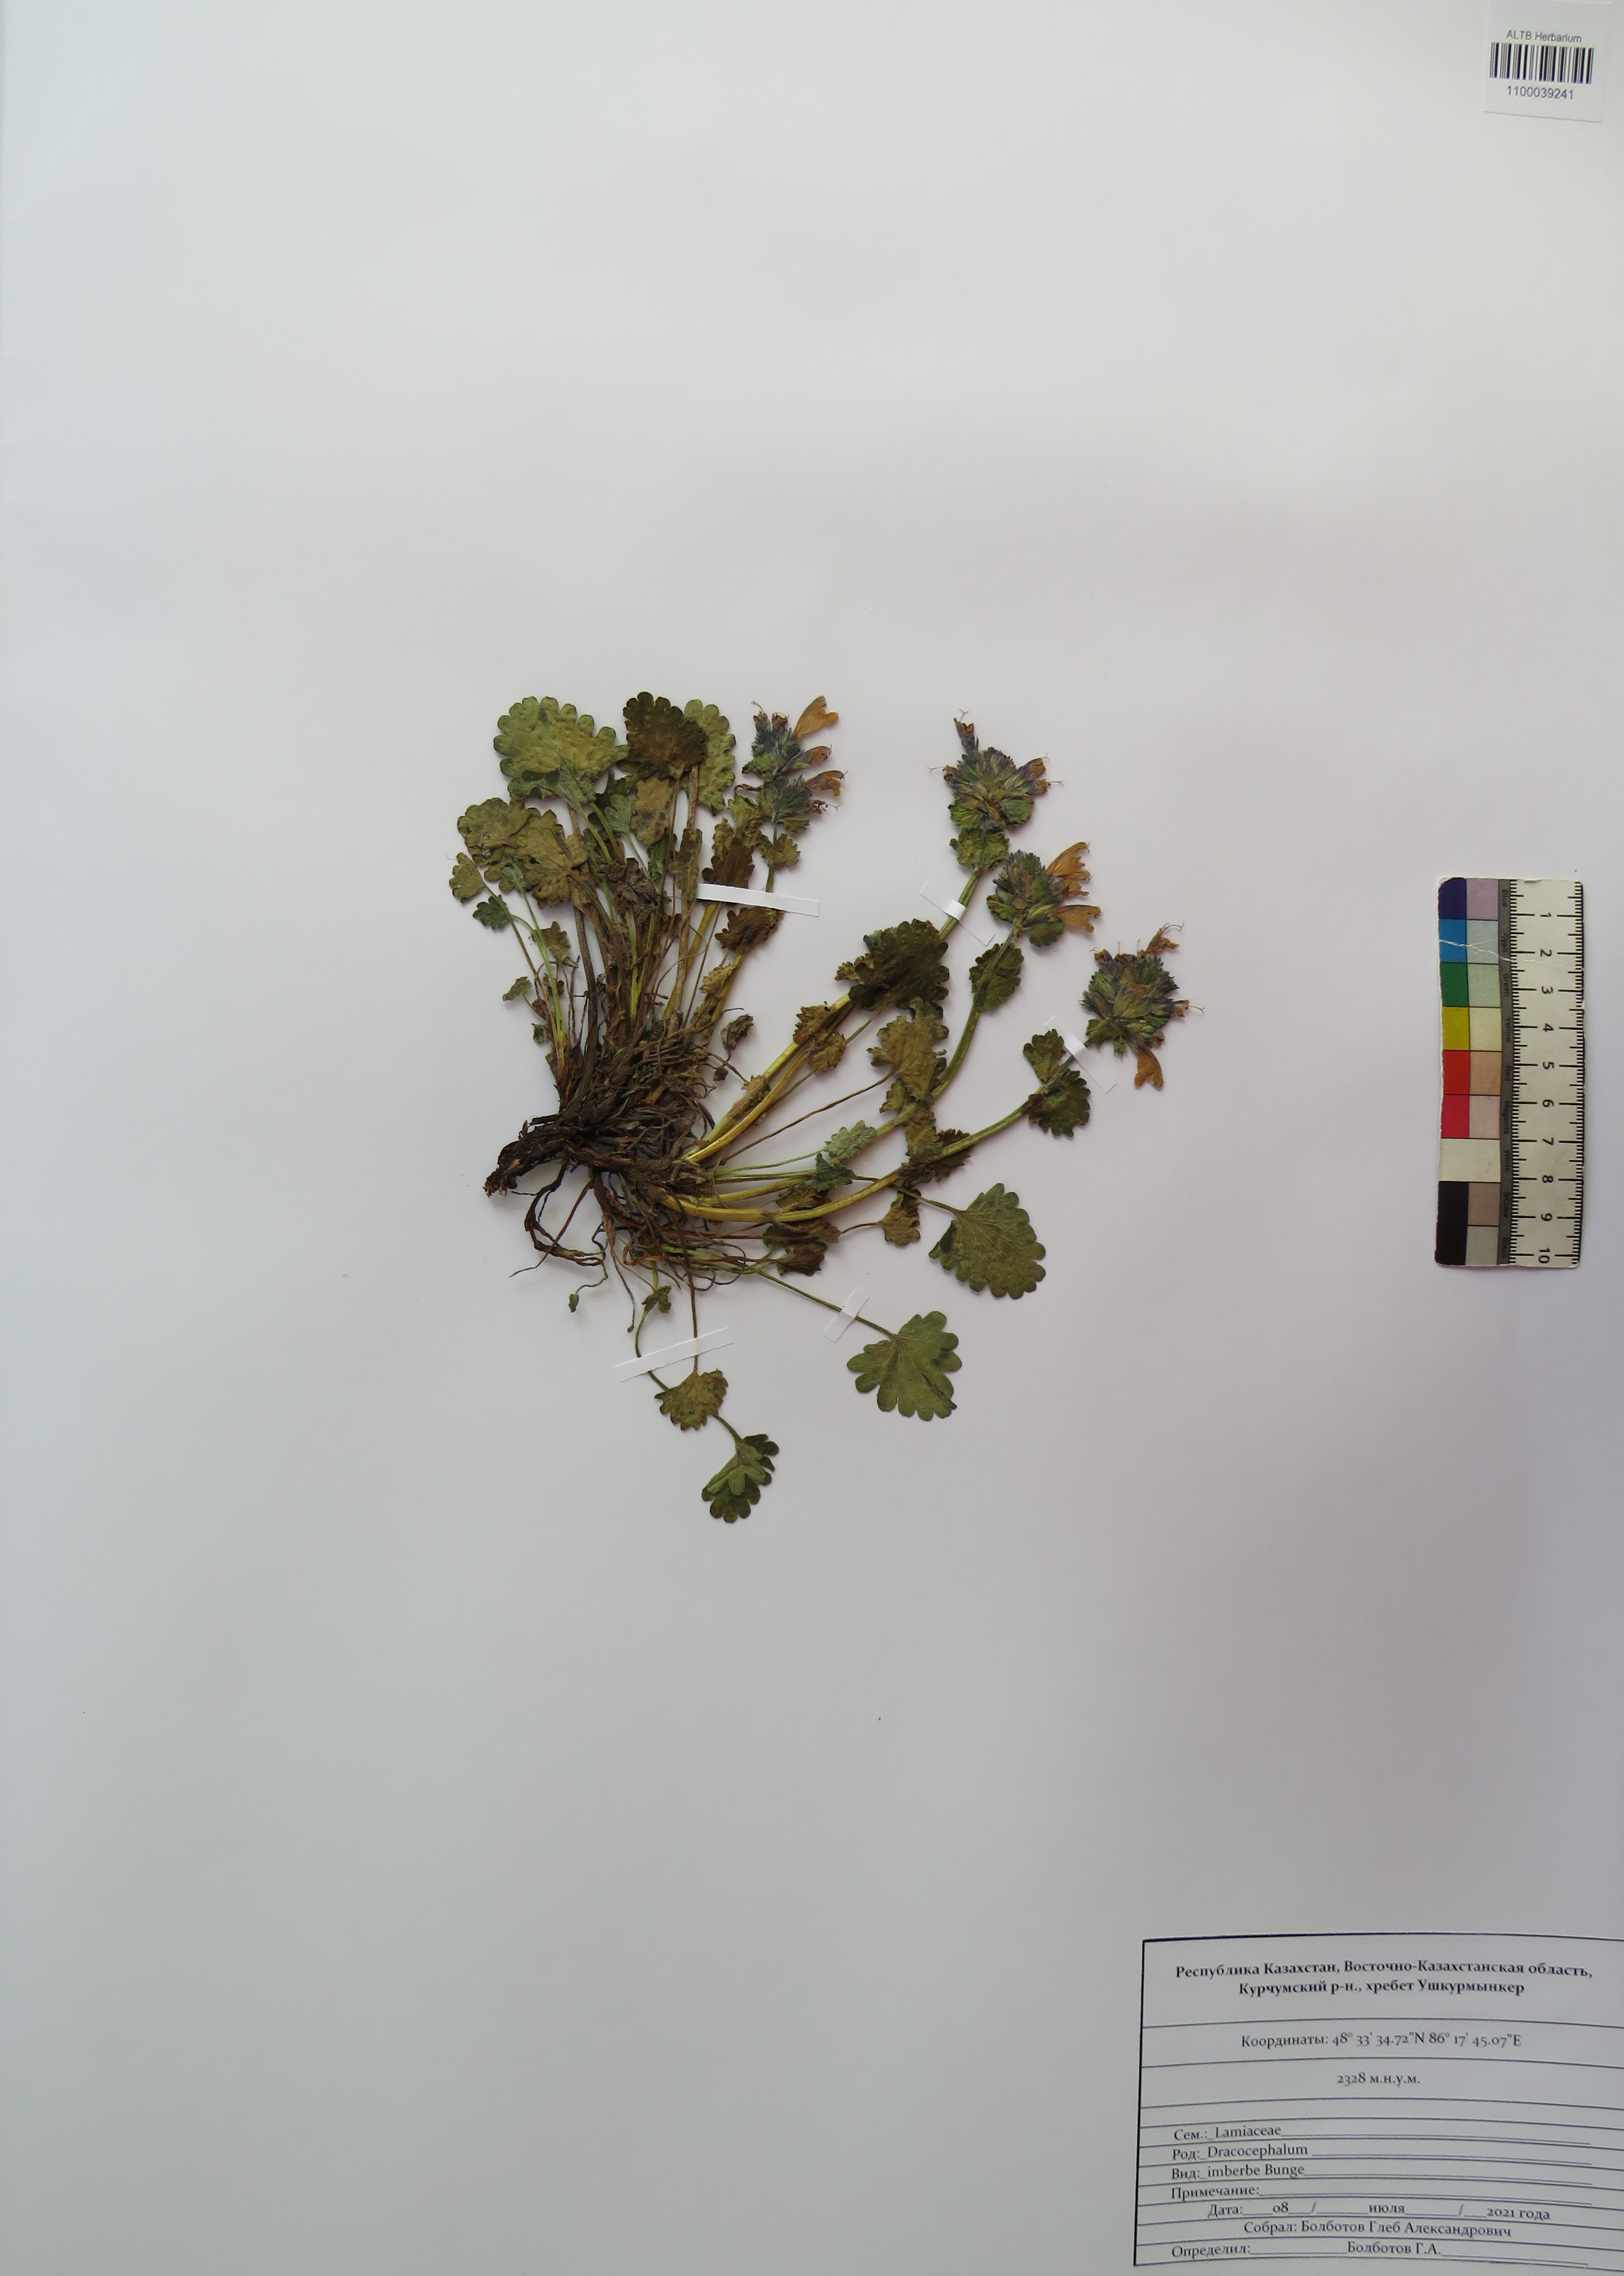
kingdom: Plantae
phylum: Tracheophyta
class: Magnoliopsida
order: Lamiales
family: Lamiaceae
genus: Dracocephalum
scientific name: Dracocephalum imberbe
